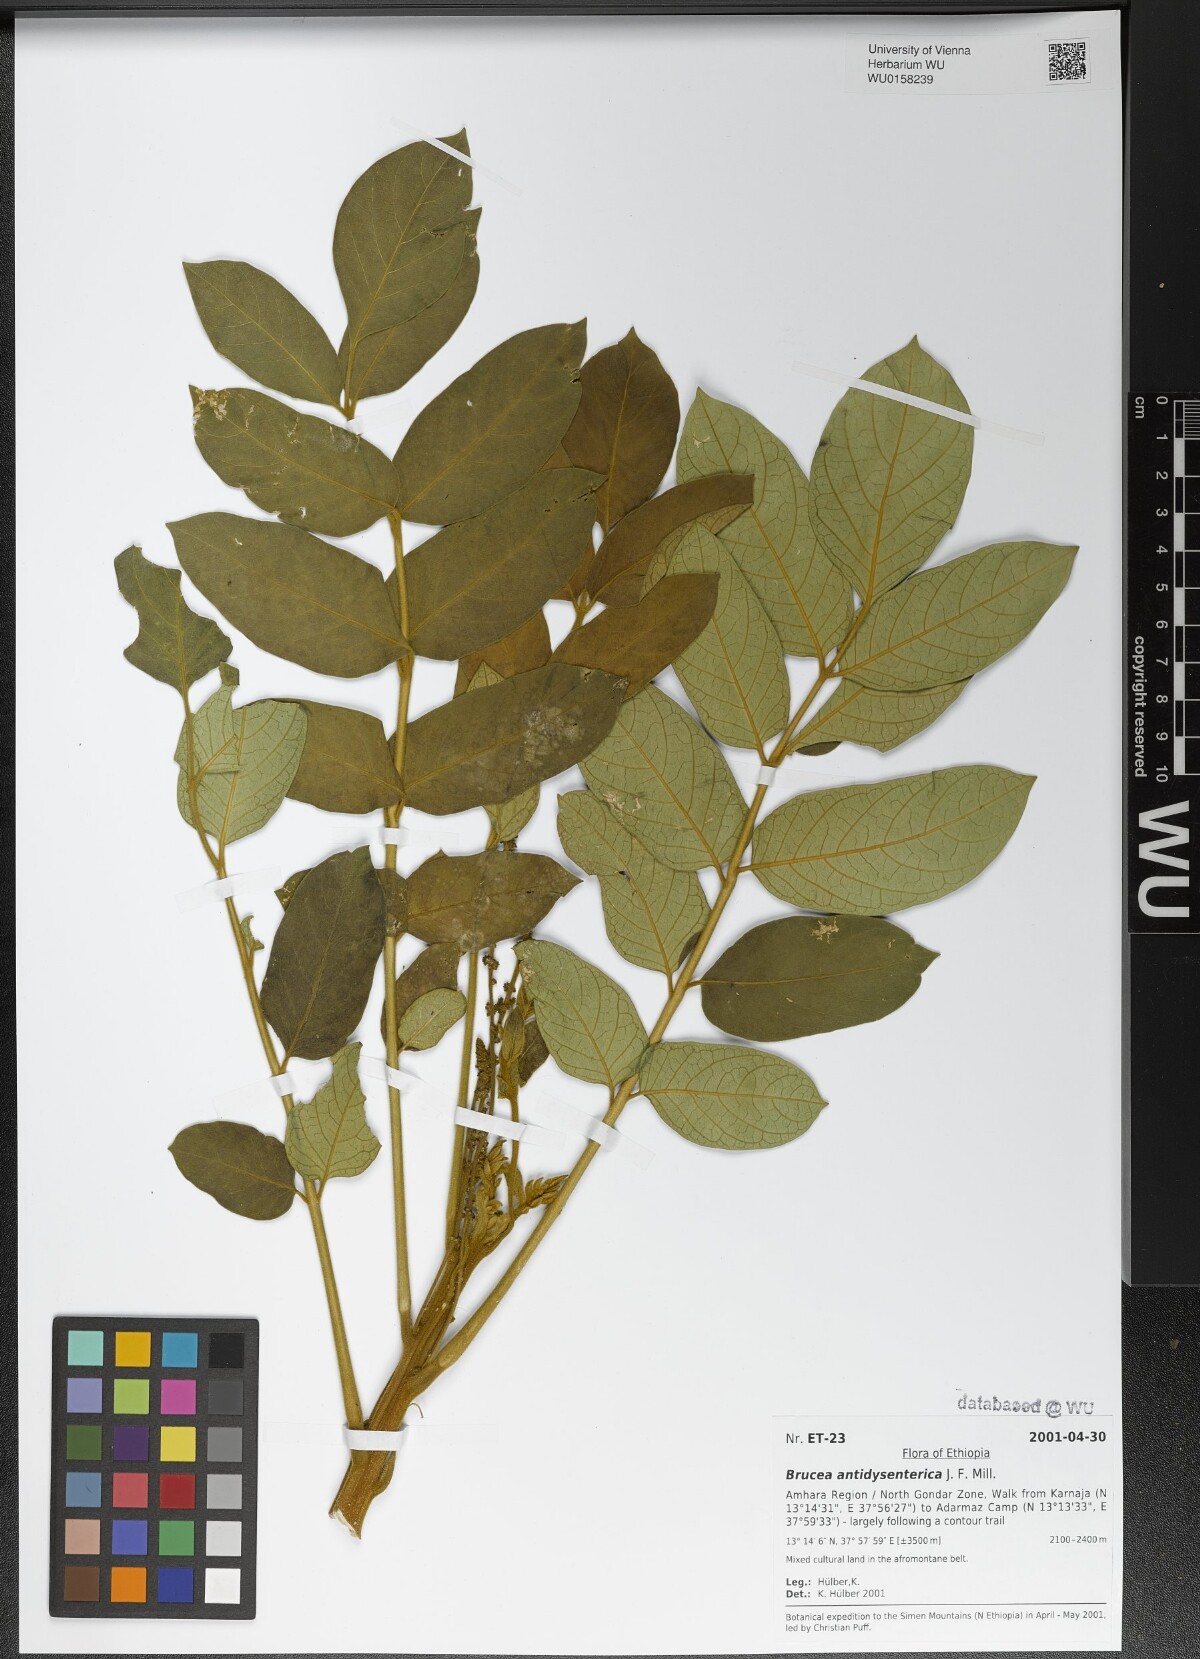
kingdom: Plantae
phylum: Tracheophyta
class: Magnoliopsida
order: Sapindales
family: Simaroubaceae
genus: Brucea
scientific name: Brucea antidysenterica
